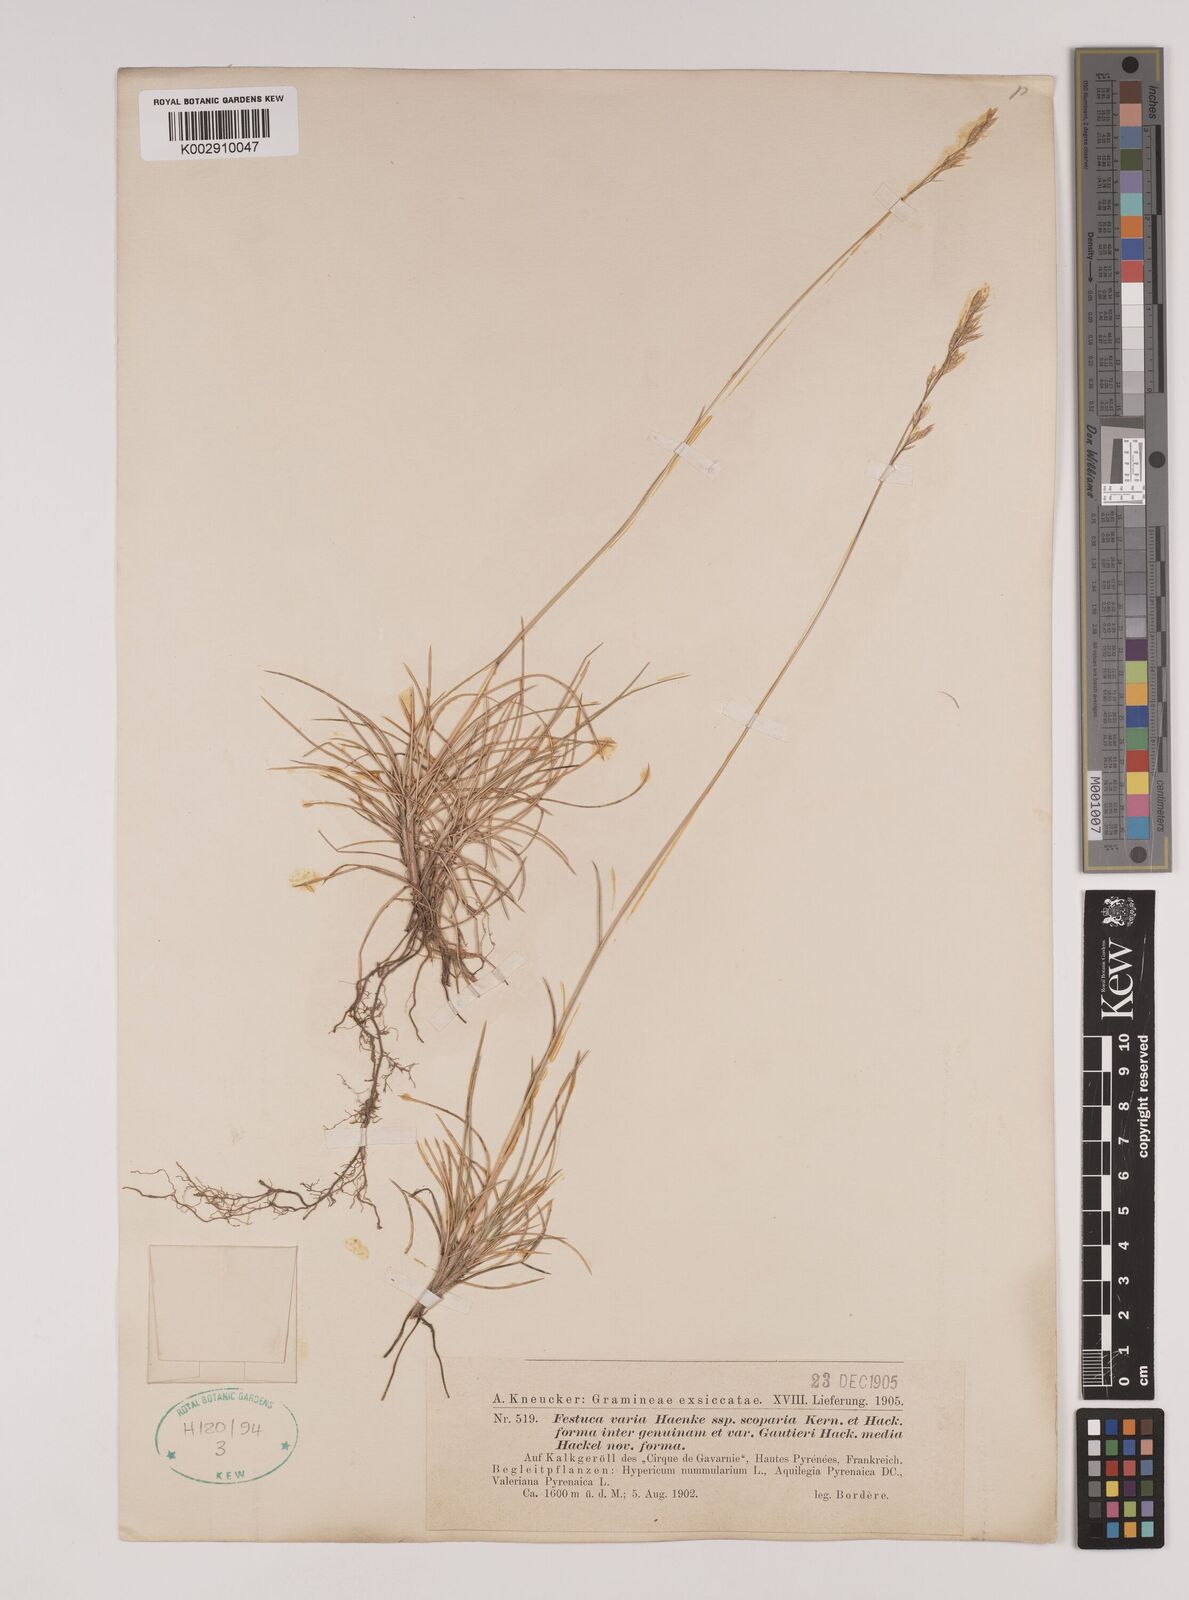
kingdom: Plantae
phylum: Tracheophyta
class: Liliopsida
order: Poales
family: Poaceae
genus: Festuca
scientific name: Festuca gautieri
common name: Spiky fescue
